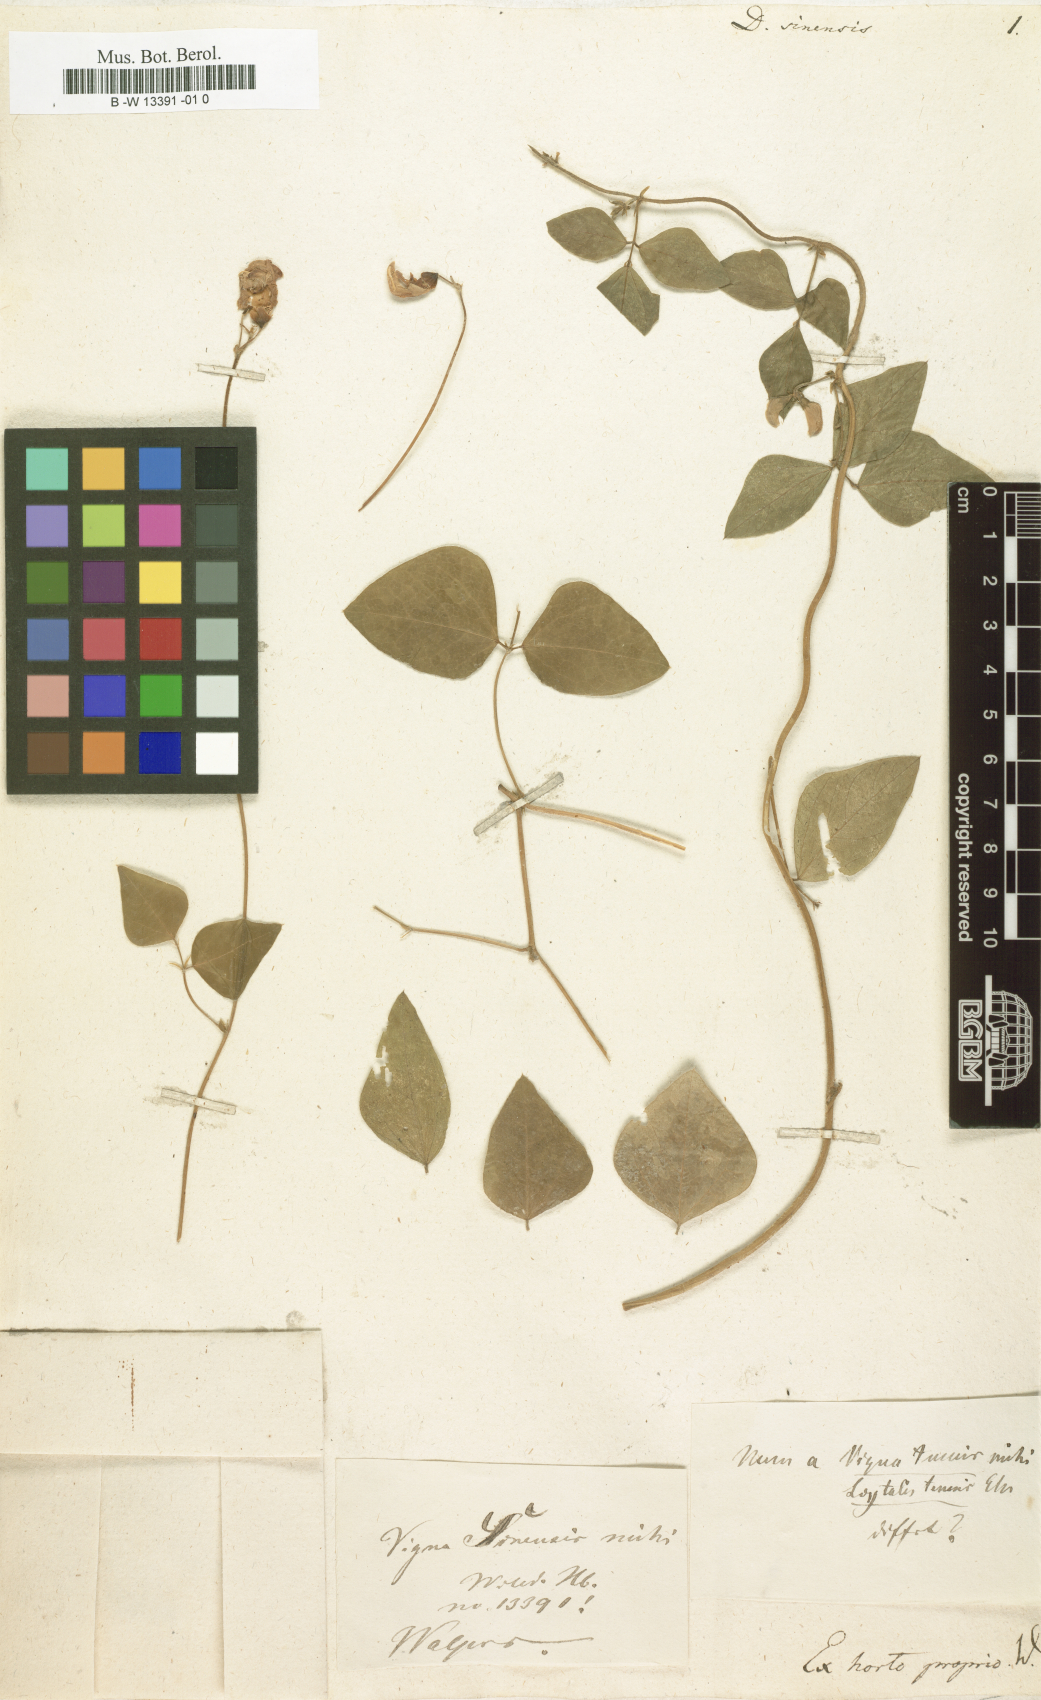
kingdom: Plantae
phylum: Tracheophyta
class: Magnoliopsida
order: Fabales
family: Fabaceae
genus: Vigna
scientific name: Vigna unguiculata
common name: Cowpea
